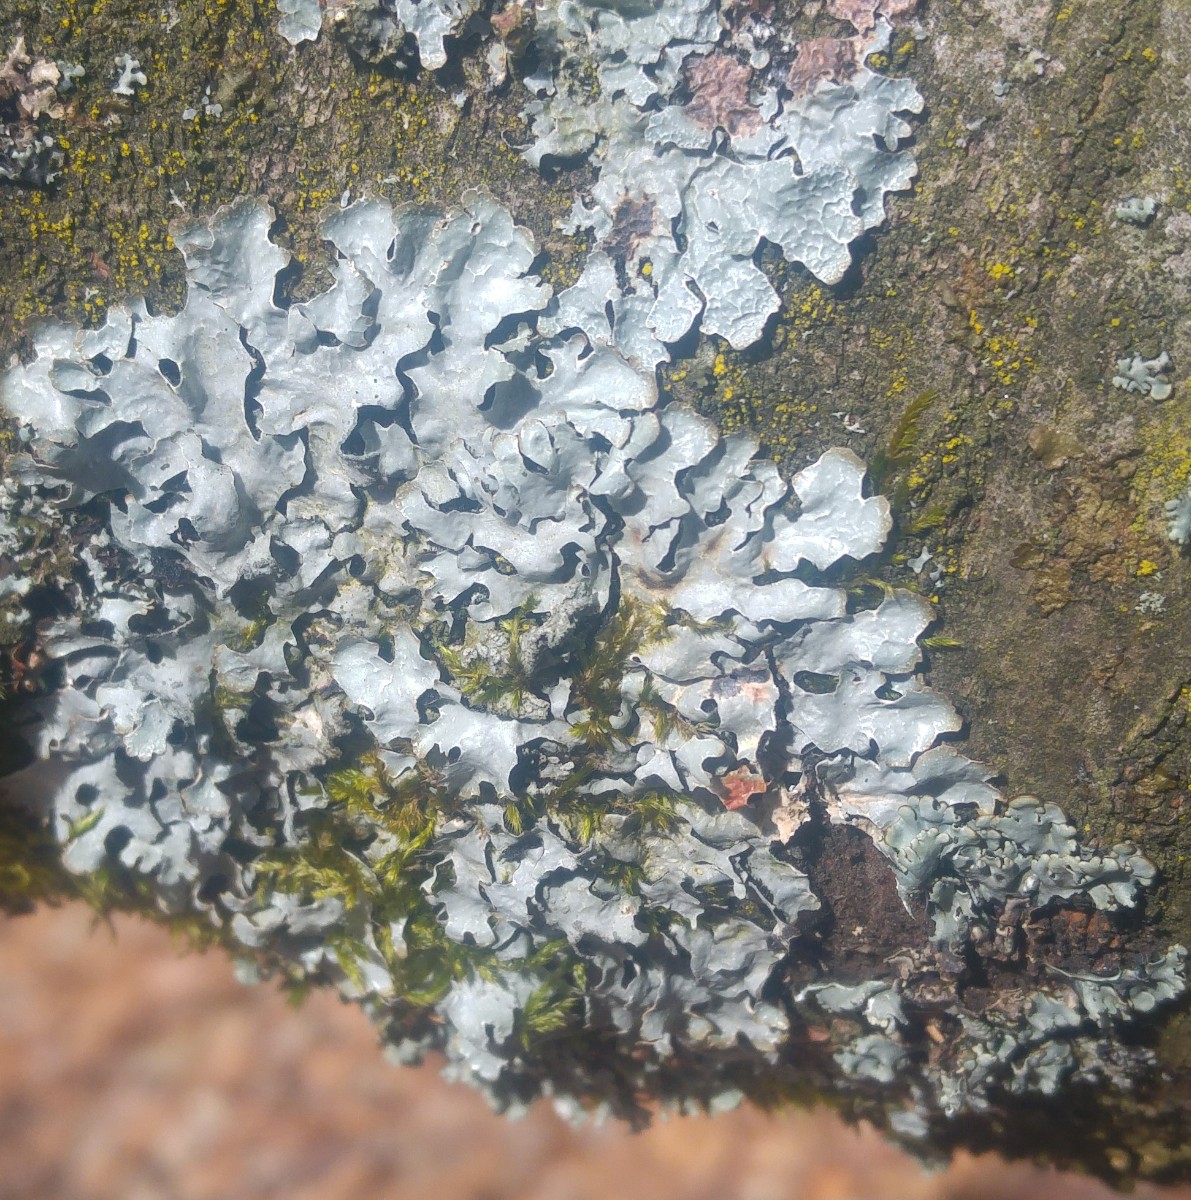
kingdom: Fungi
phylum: Ascomycota
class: Lecanoromycetes
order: Lecanorales
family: Parmeliaceae
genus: Parmelia
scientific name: Parmelia sulcata
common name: rynket skållav
